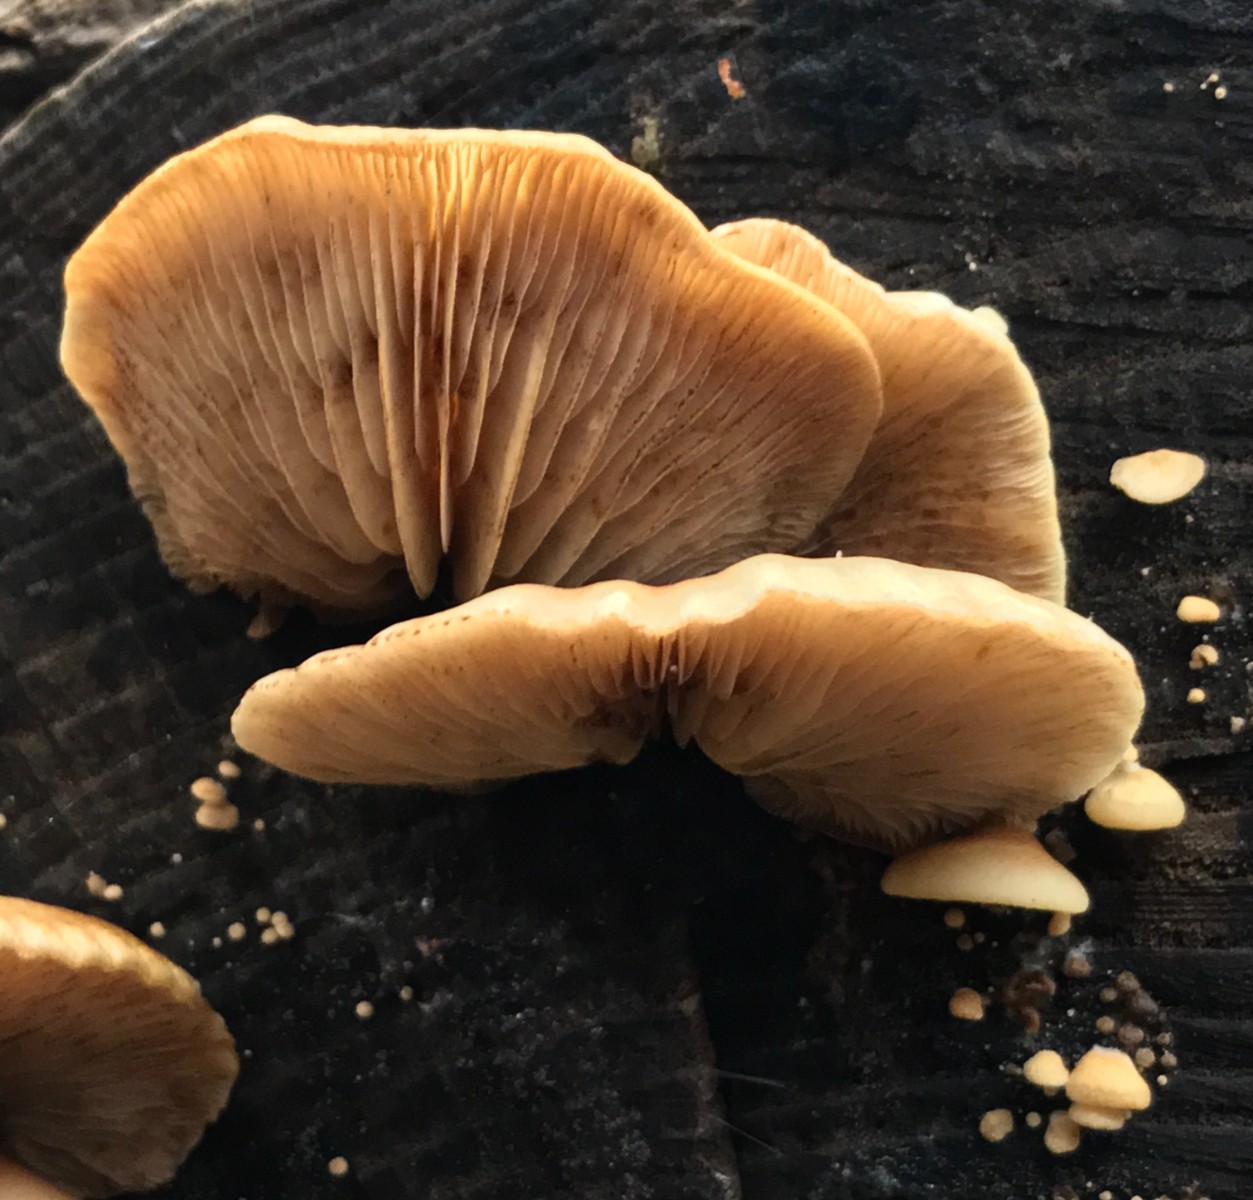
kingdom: Fungi
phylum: Basidiomycota
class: Agaricomycetes
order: Agaricales
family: Crepidotaceae
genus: Crepidotus
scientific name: Crepidotus mollis
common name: blød muslingesvamp
